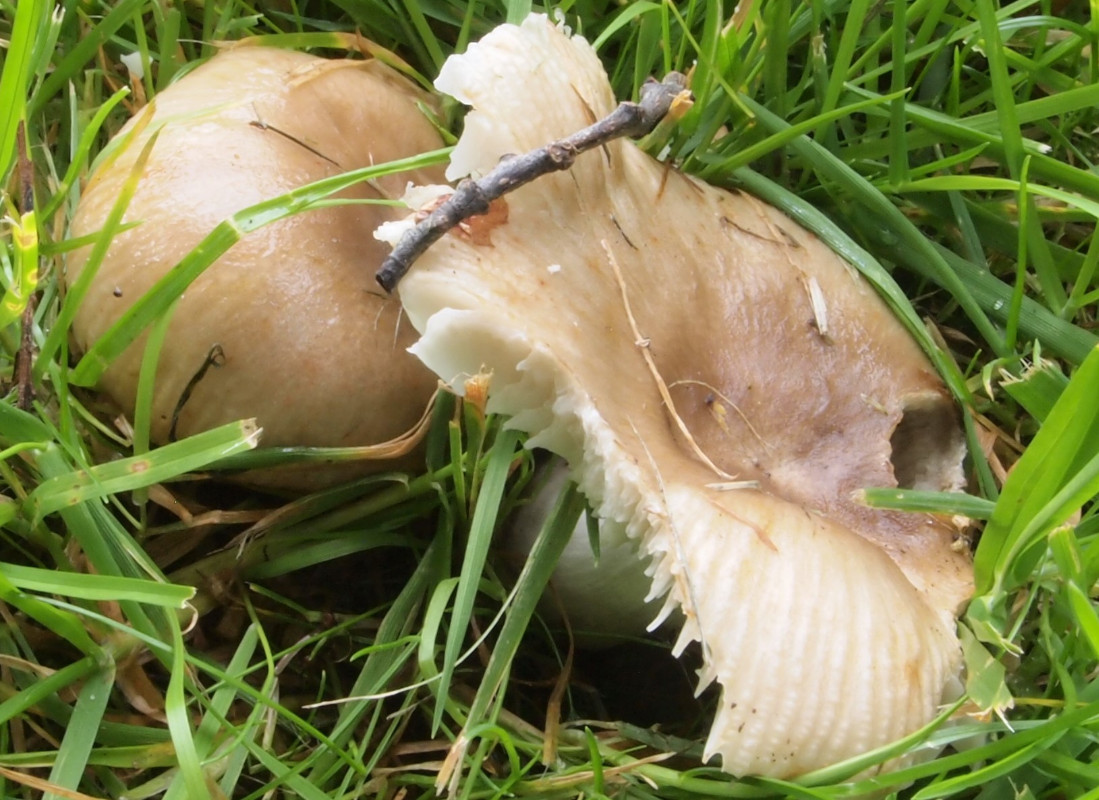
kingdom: Fungi
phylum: Basidiomycota
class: Agaricomycetes
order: Russulales
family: Russulaceae
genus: Russula
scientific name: Russula recondita
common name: mild kam-skørhat
